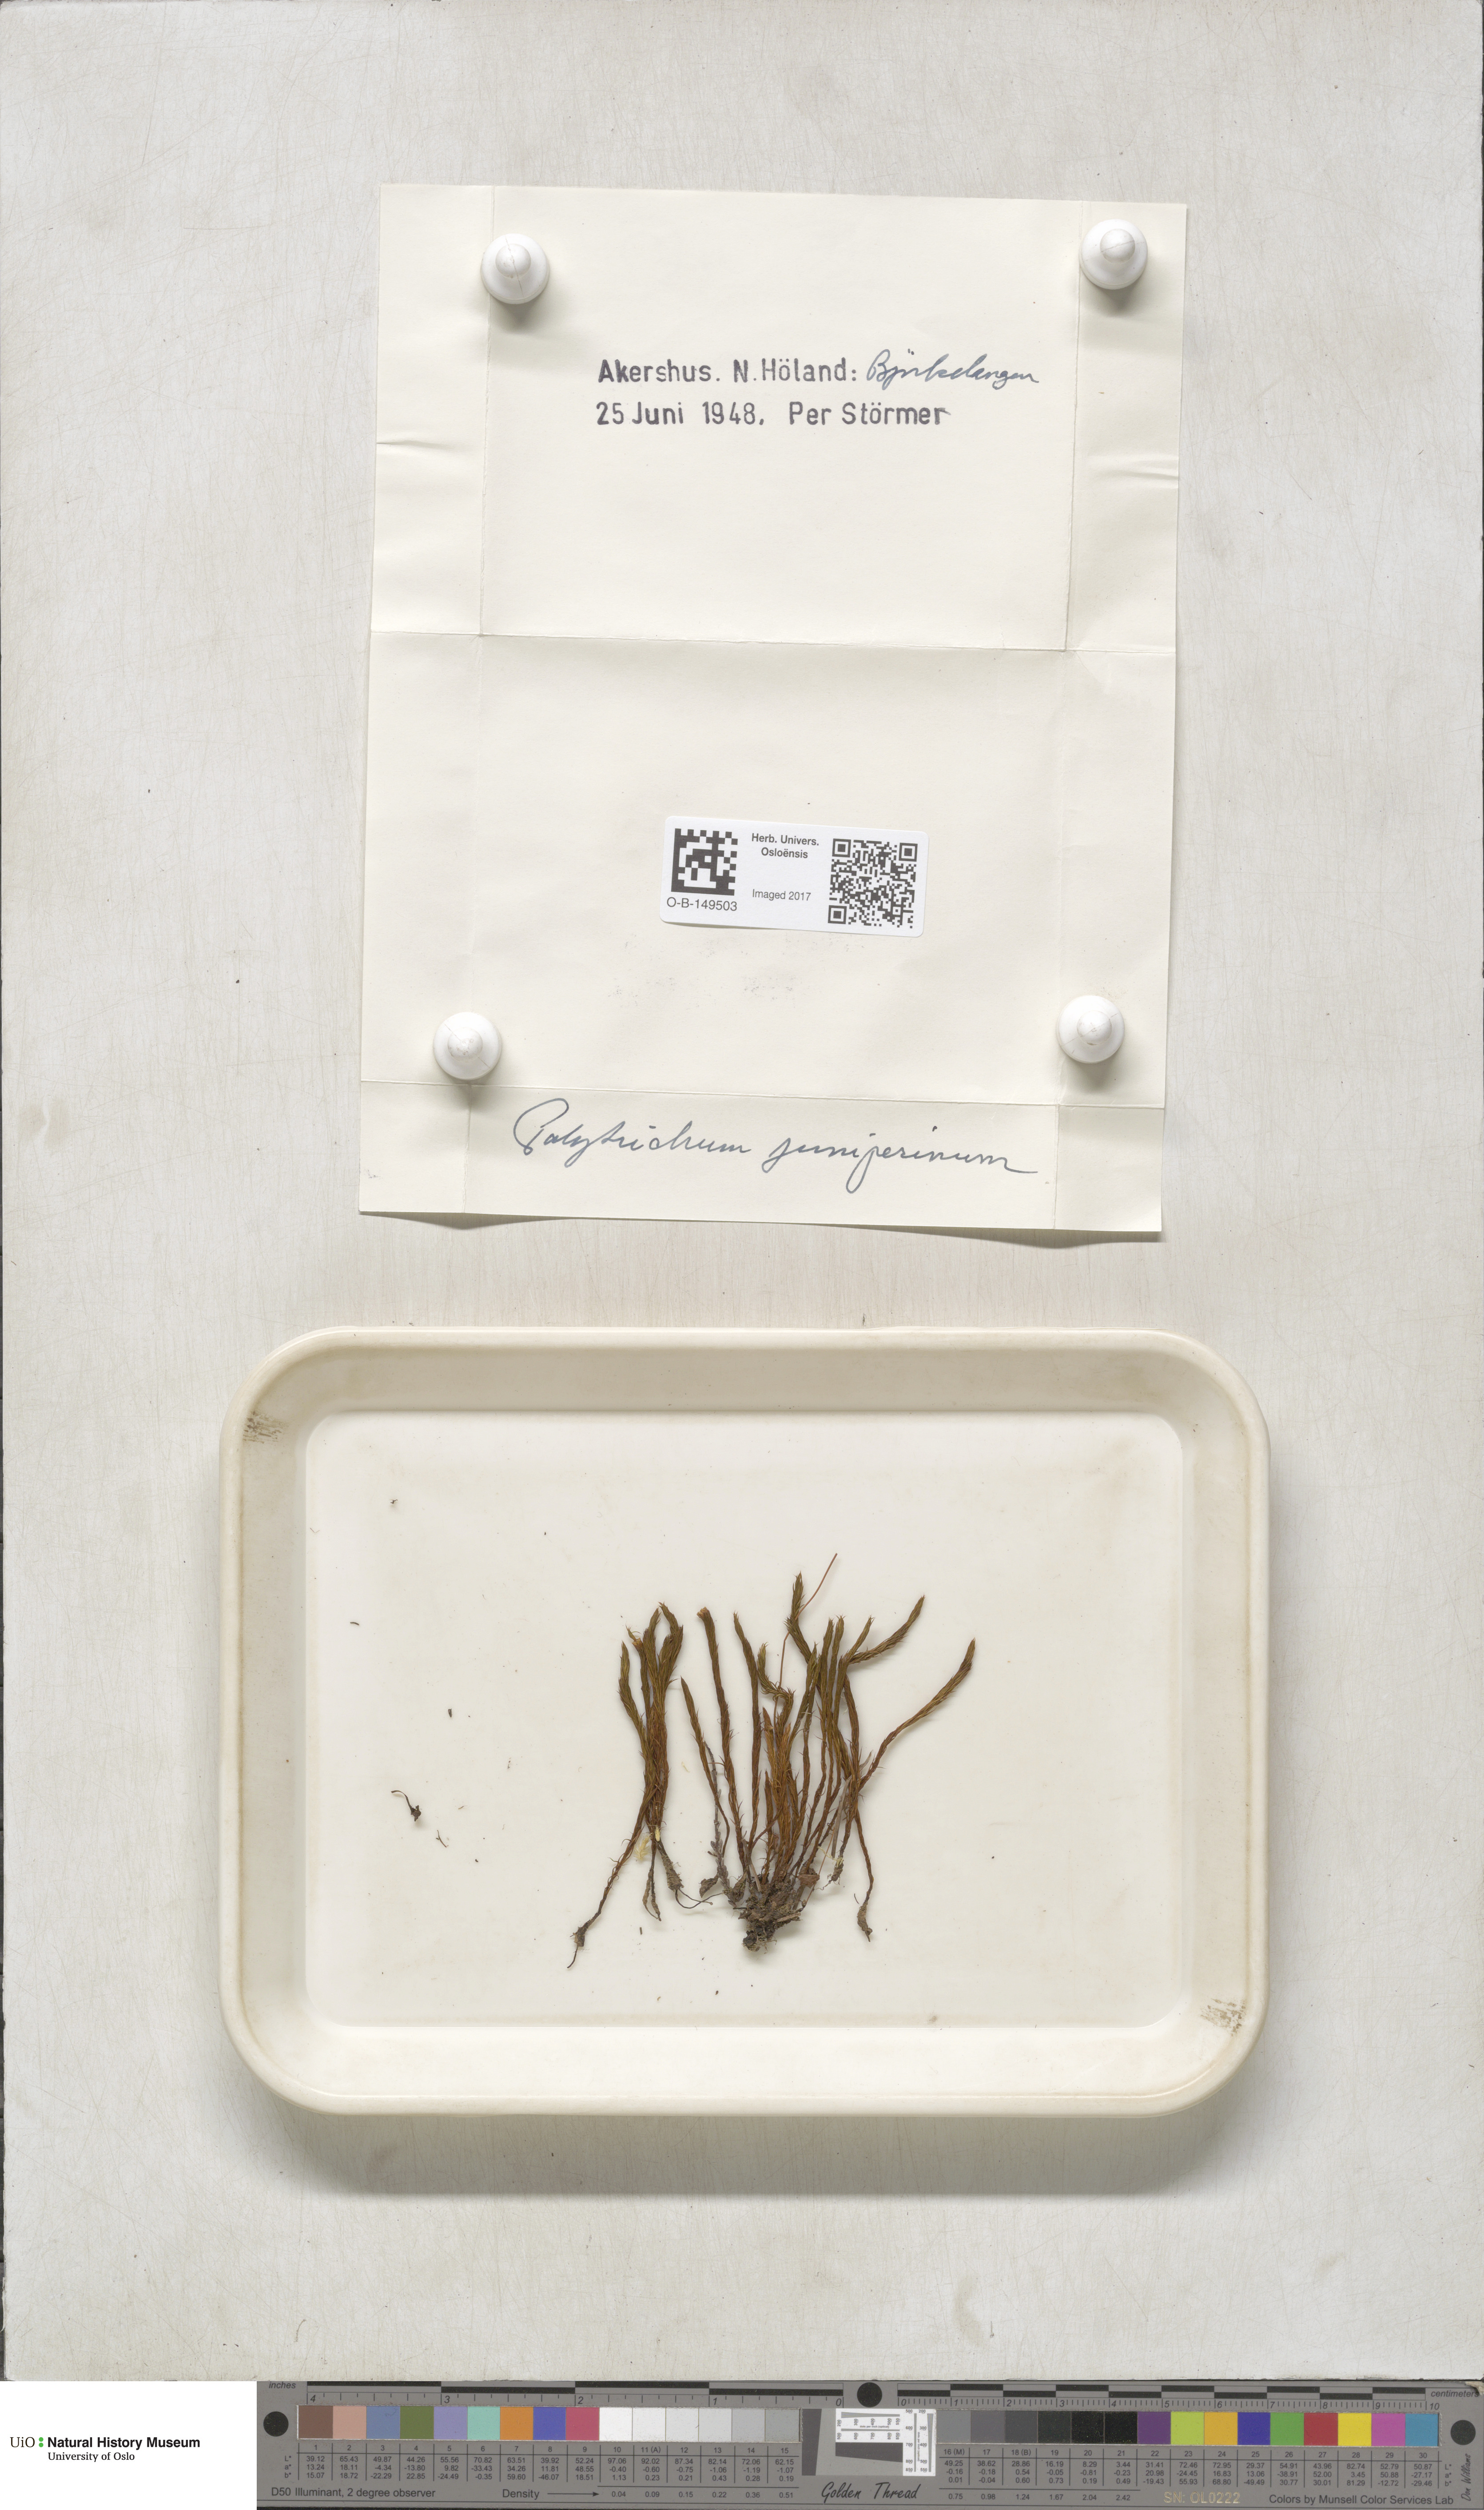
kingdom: Plantae
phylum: Bryophyta
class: Polytrichopsida
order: Polytrichales
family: Polytrichaceae
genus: Polytrichum
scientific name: Polytrichum juniperinum
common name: Juniper haircap moss
